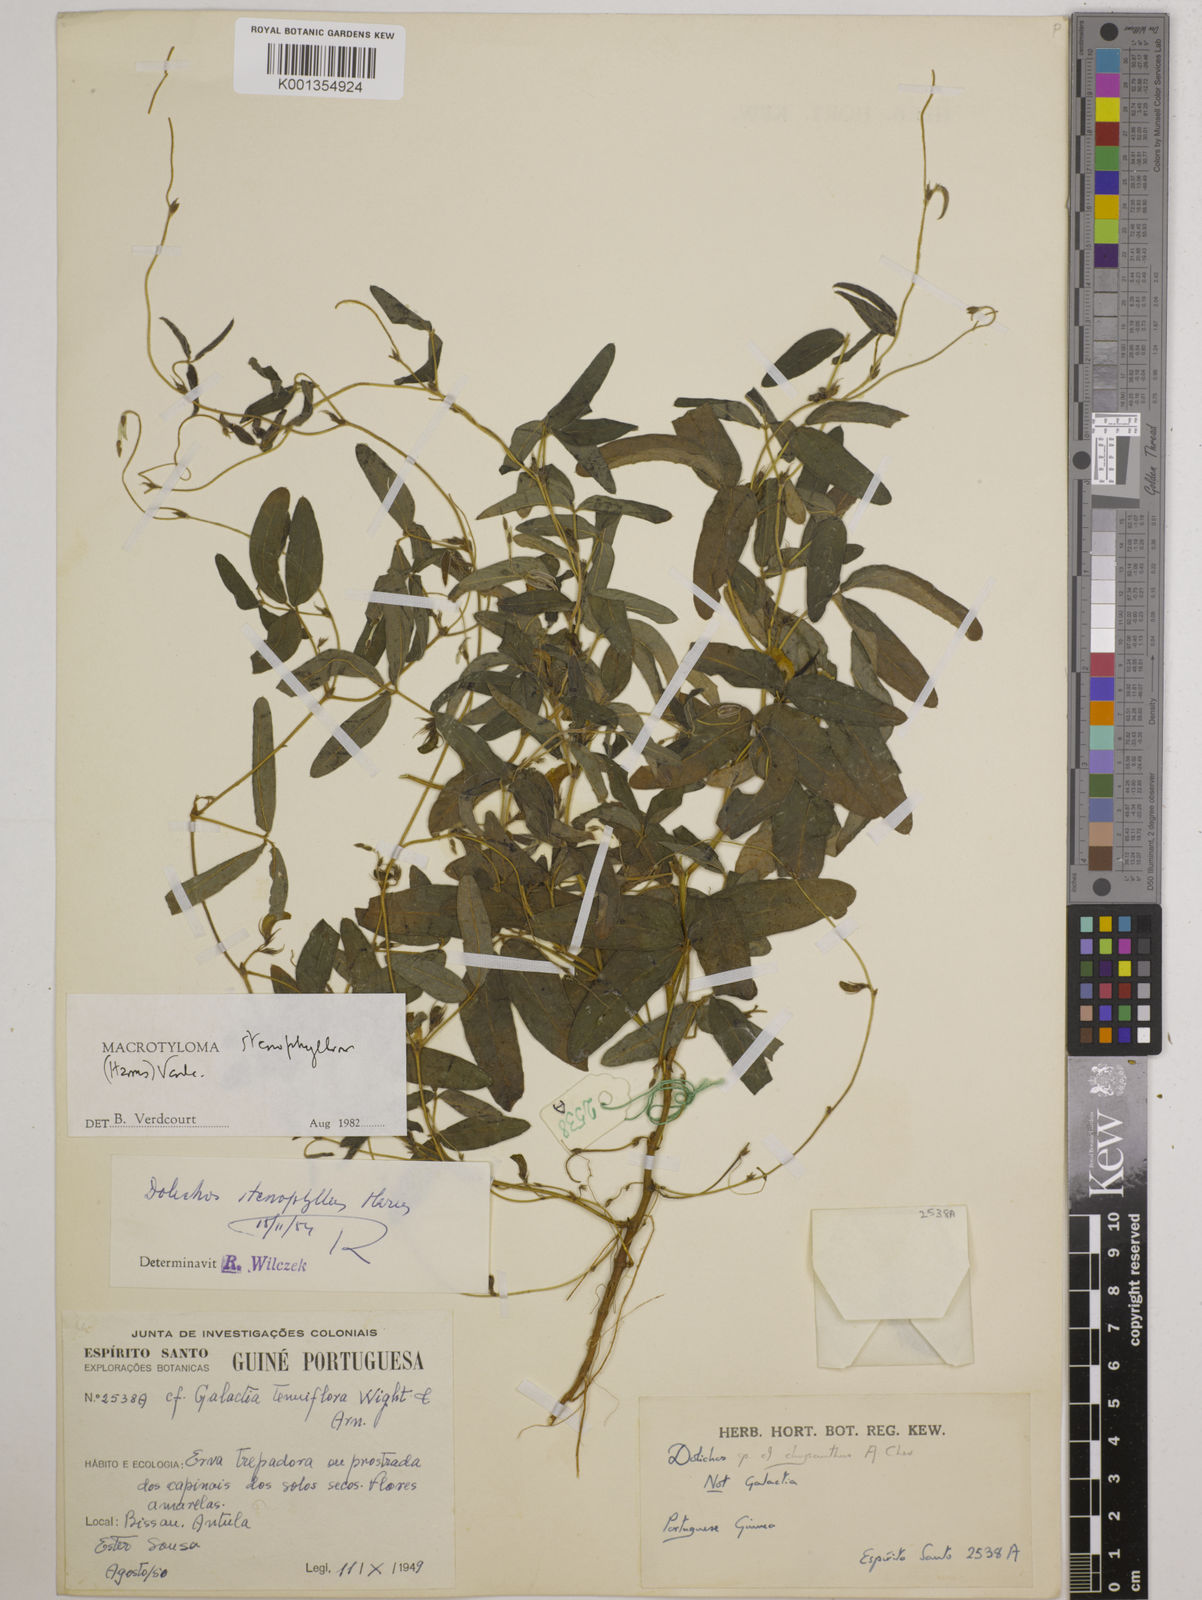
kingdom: Plantae
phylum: Tracheophyta
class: Magnoliopsida
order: Fabales
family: Fabaceae
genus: Macrotyloma
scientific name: Macrotyloma stenophyllum
